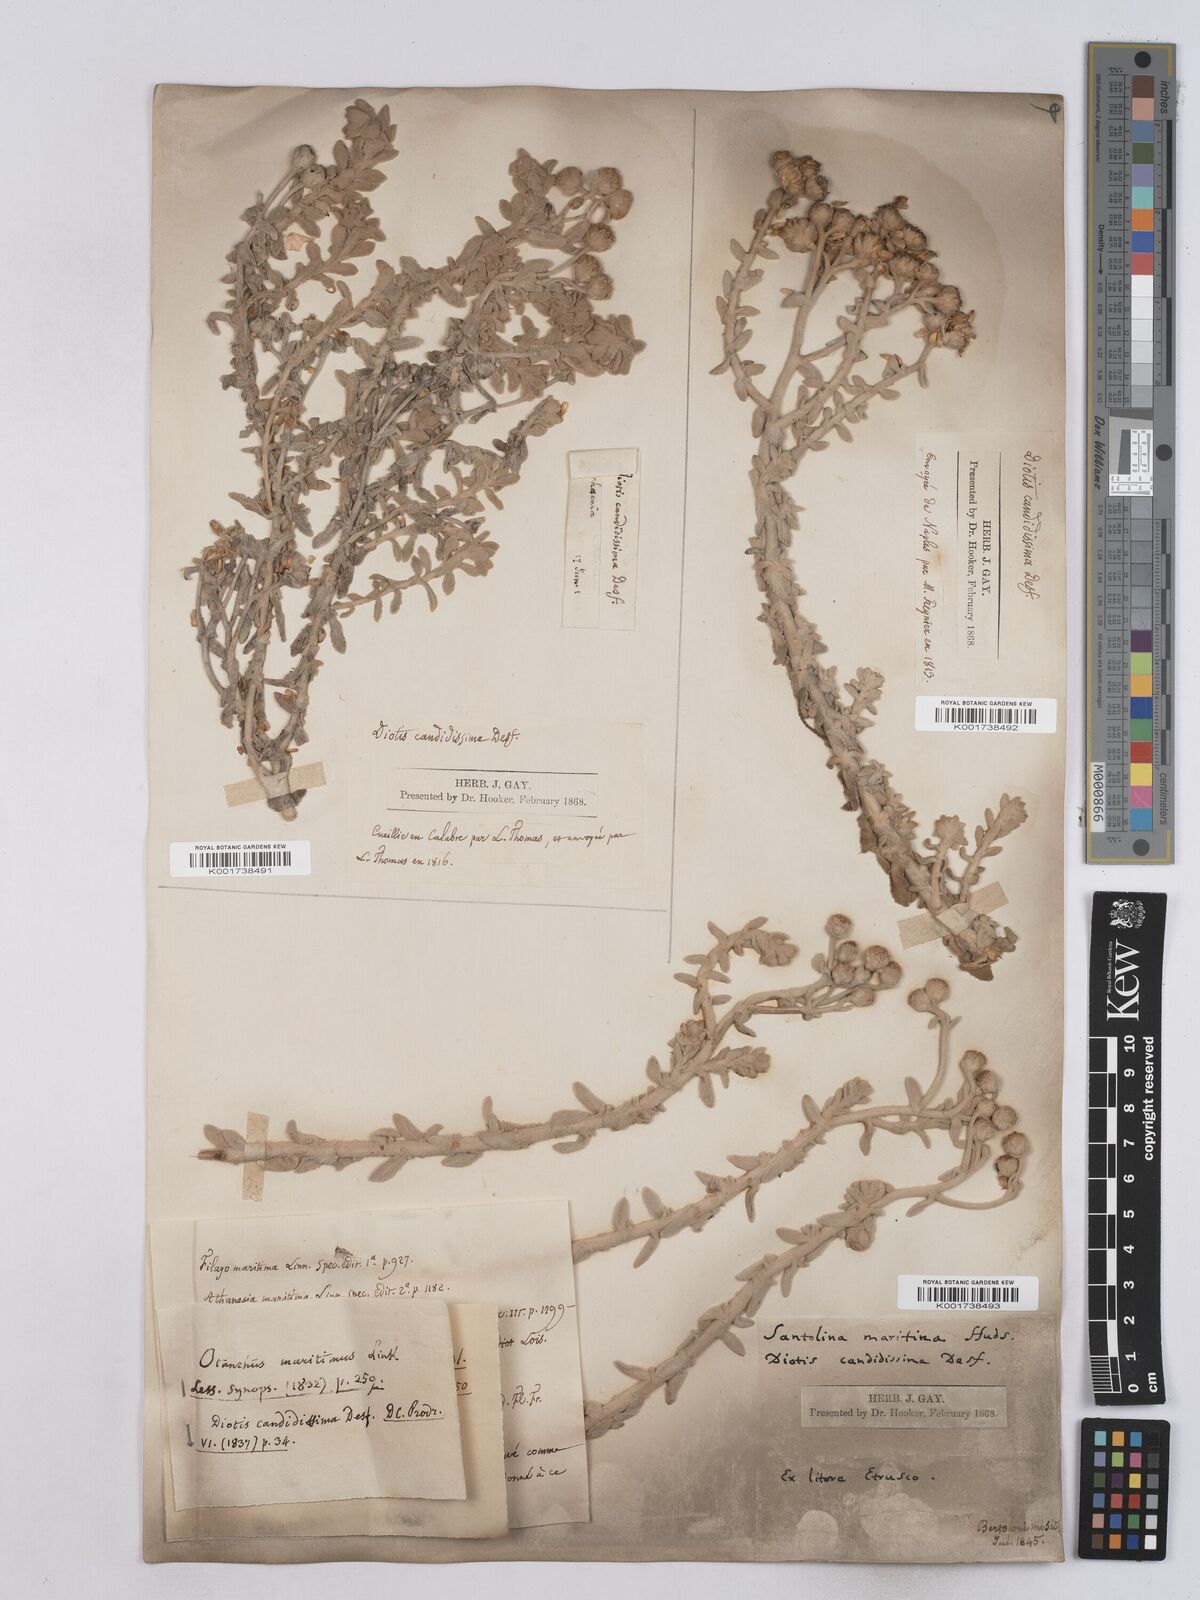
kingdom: Plantae
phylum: Tracheophyta
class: Magnoliopsida
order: Asterales
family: Asteraceae
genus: Achillea
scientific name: Achillea maritima
